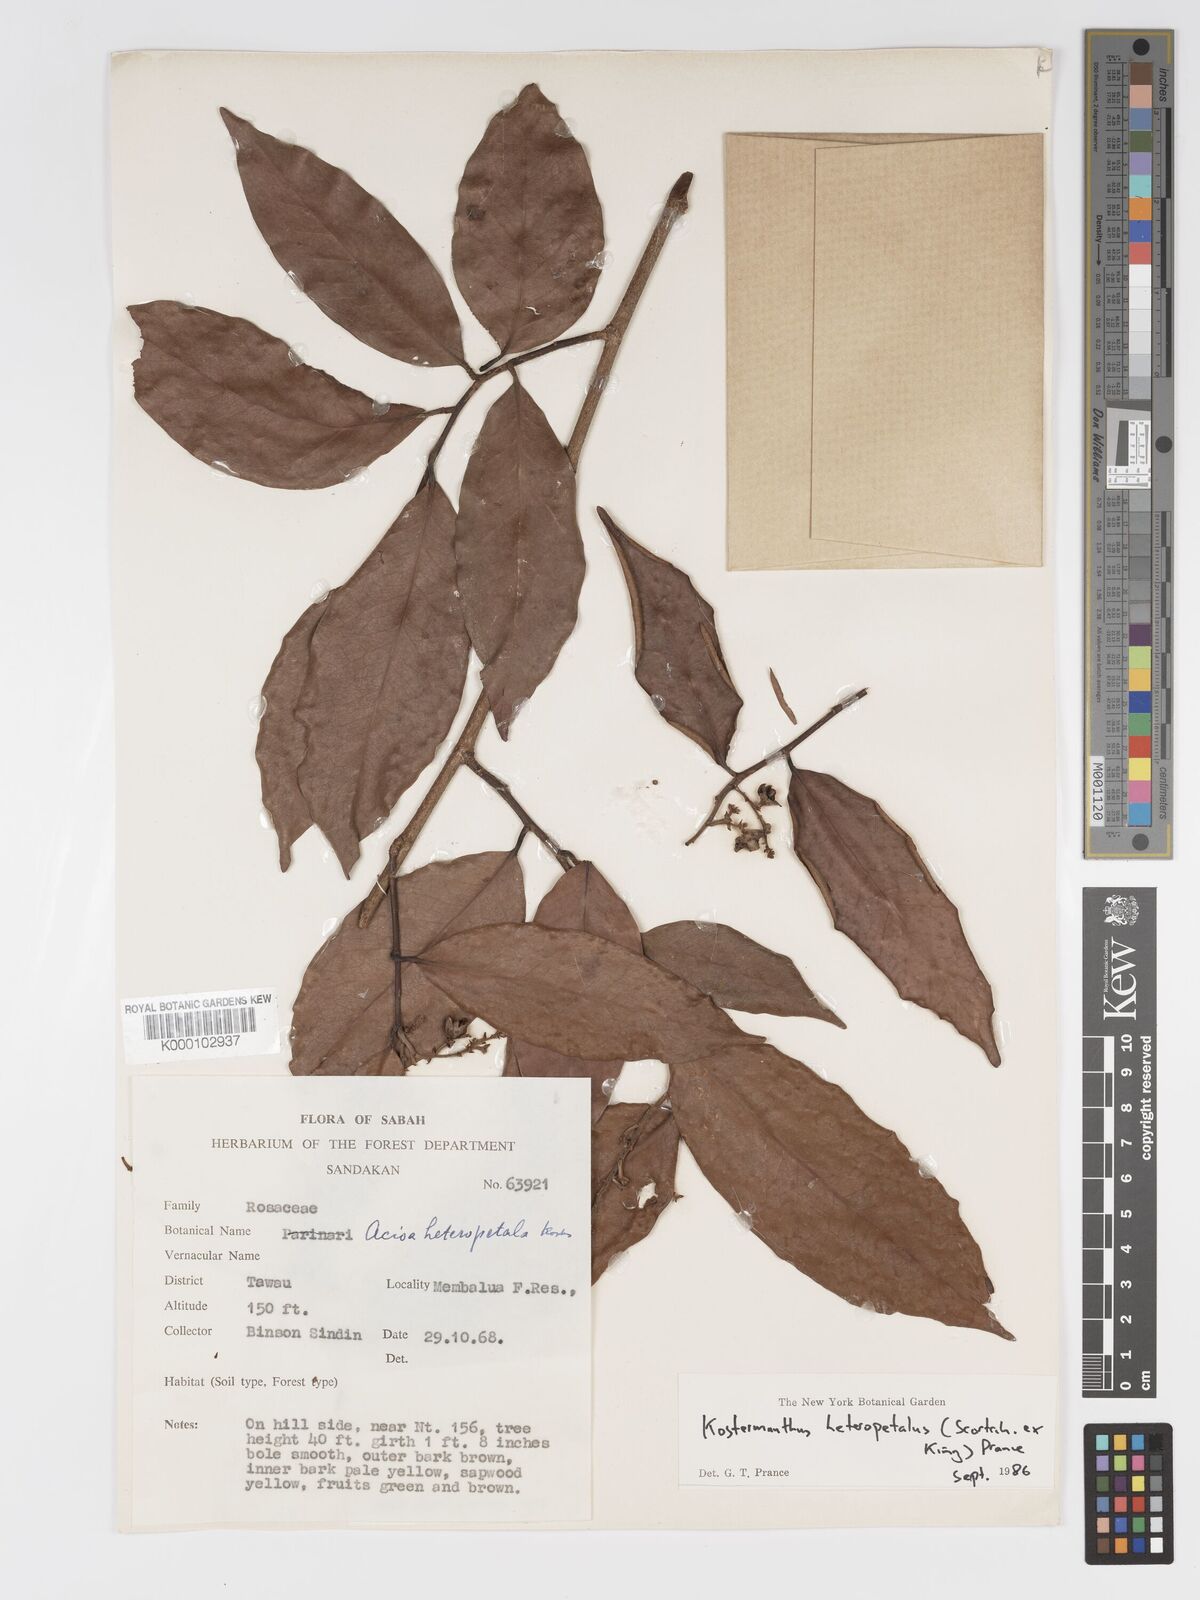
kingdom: Plantae
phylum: Tracheophyta
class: Magnoliopsida
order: Malpighiales
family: Chrysobalanaceae
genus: Kostermanthus
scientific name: Kostermanthus heteropetalus
